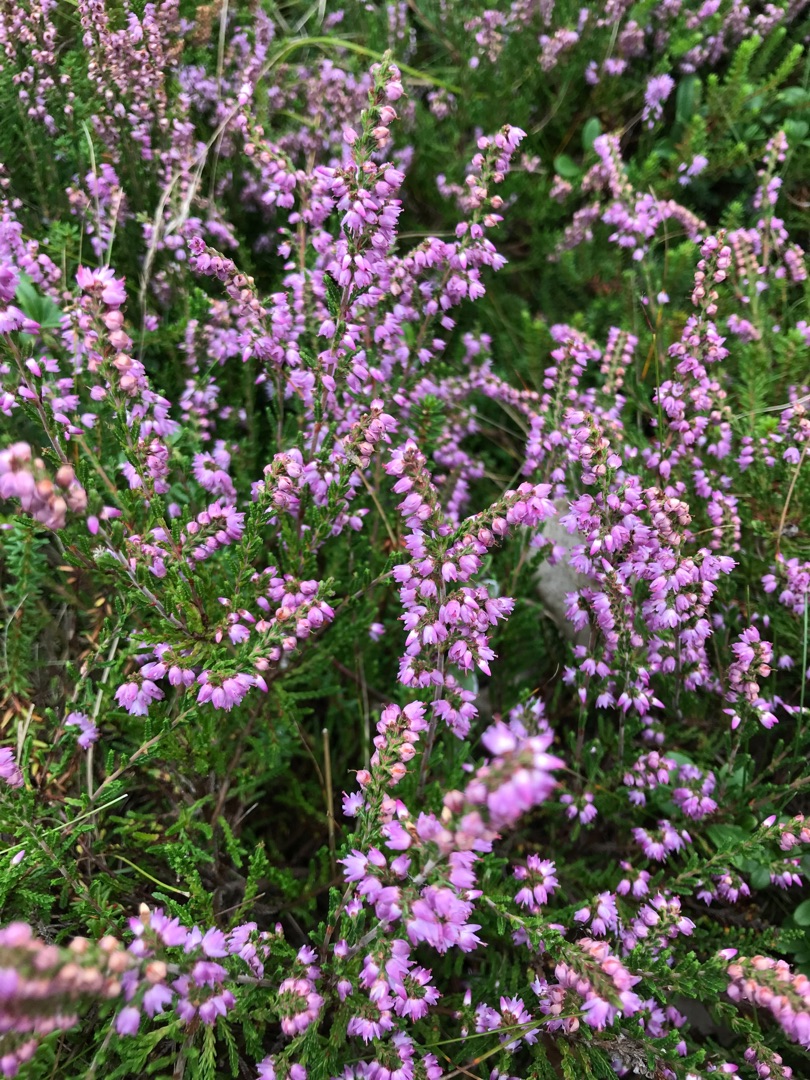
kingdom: Plantae
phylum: Tracheophyta
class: Magnoliopsida
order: Ericales
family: Ericaceae
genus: Calluna
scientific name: Calluna vulgaris
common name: Hedelyng
